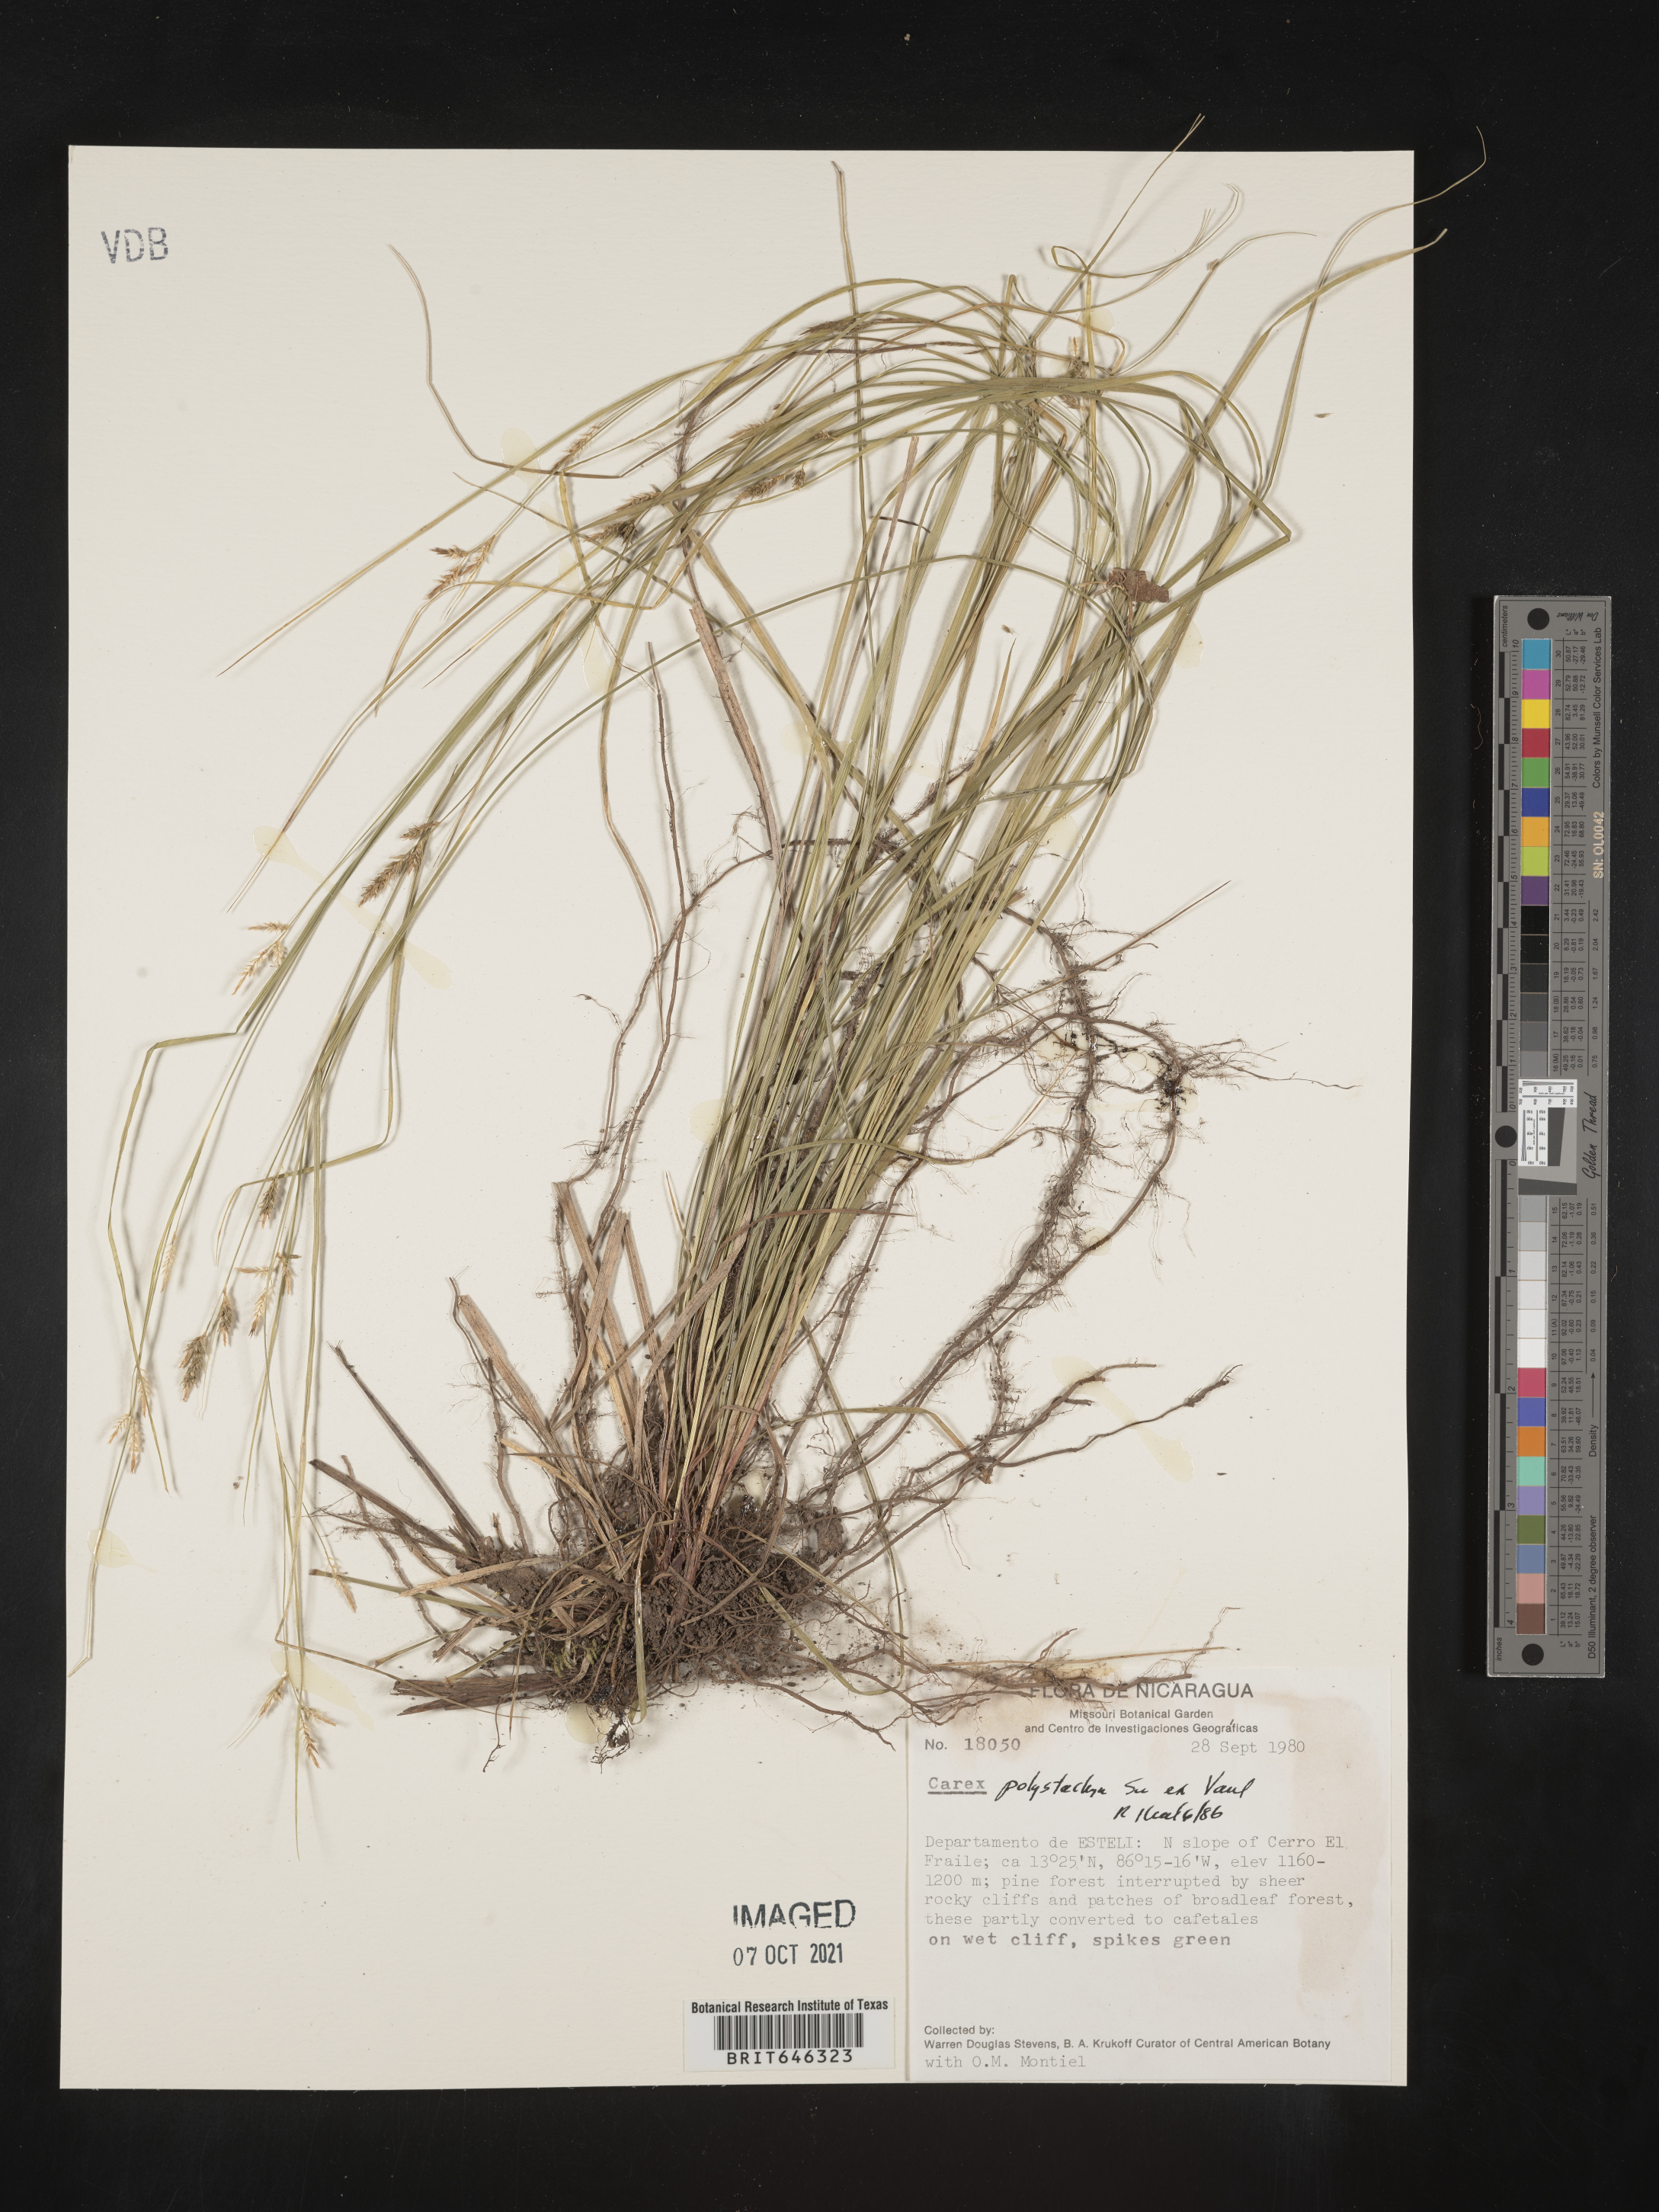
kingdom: Plantae
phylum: Tracheophyta
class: Liliopsida
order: Poales
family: Cyperaceae
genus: Carex
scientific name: Carex polystachya
